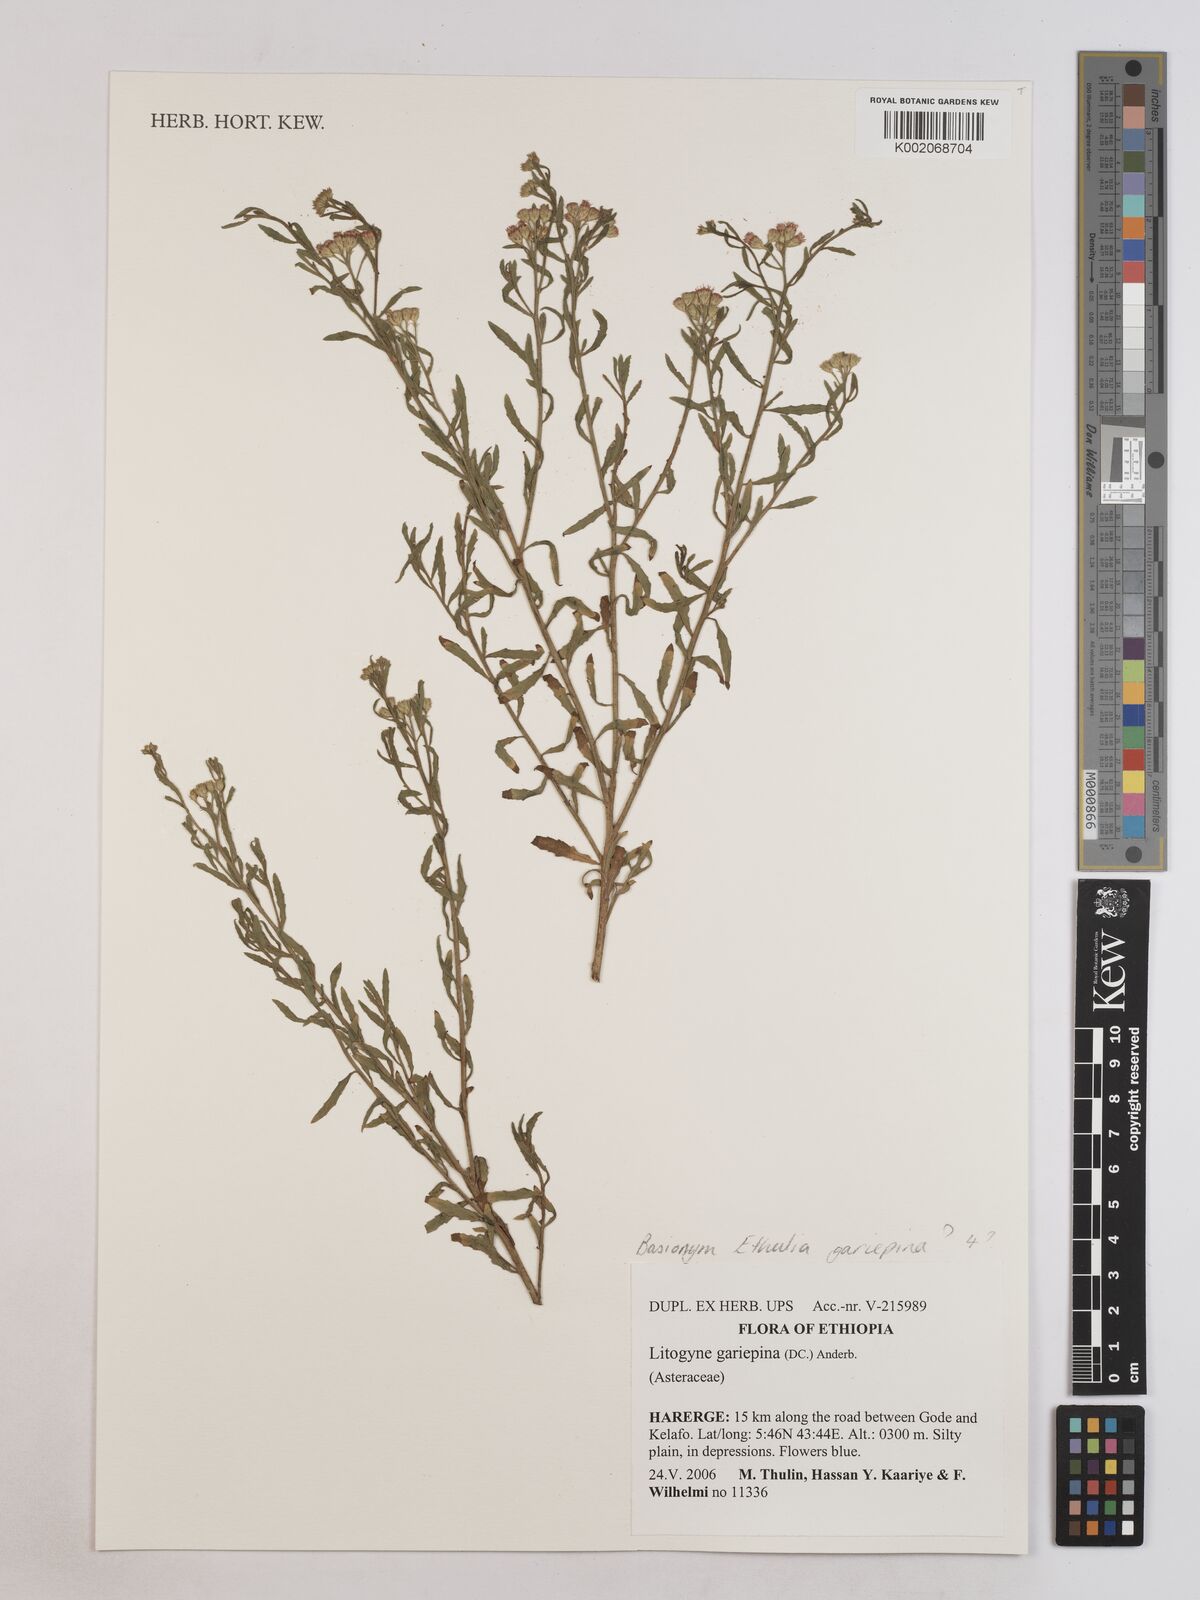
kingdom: Plantae
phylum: Tracheophyta
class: Magnoliopsida
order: Asterales
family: Asteraceae
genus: Litogyne
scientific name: Litogyne gariepina
